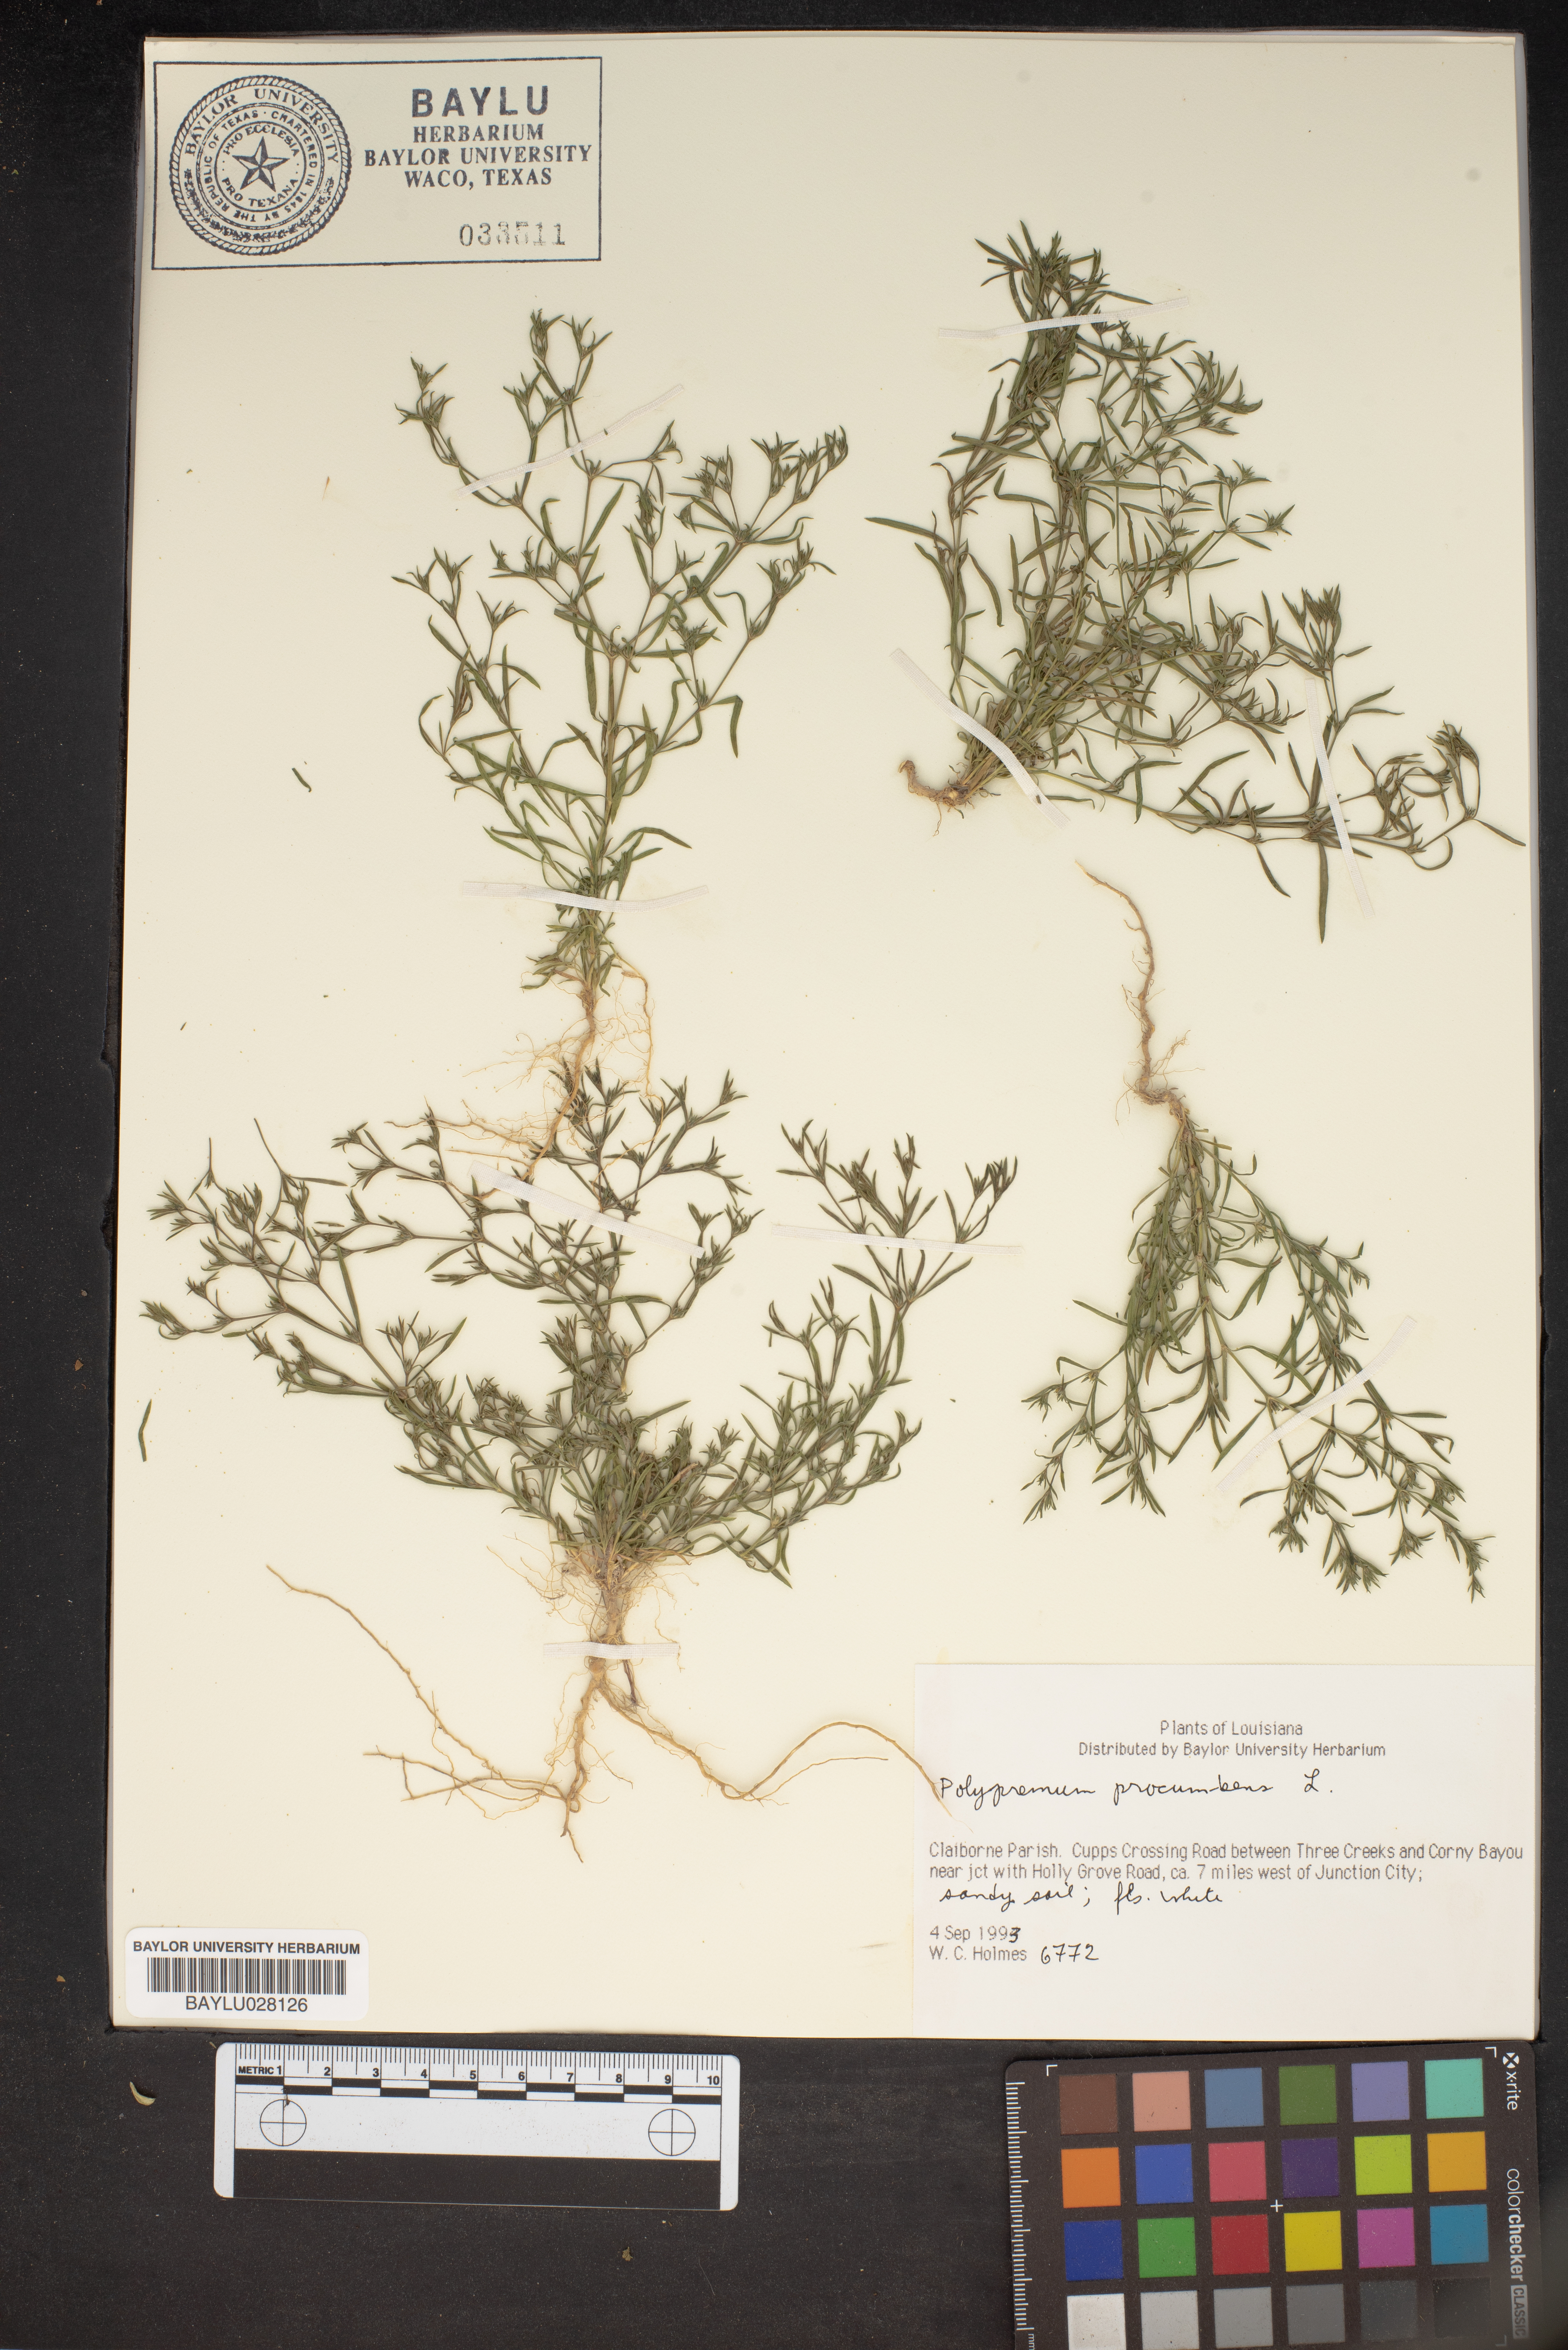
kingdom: Plantae
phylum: Tracheophyta
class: Magnoliopsida
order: Lamiales
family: Tetrachondraceae
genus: Polypremum
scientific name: Polypremum procumbens
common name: Juniper-leaf
